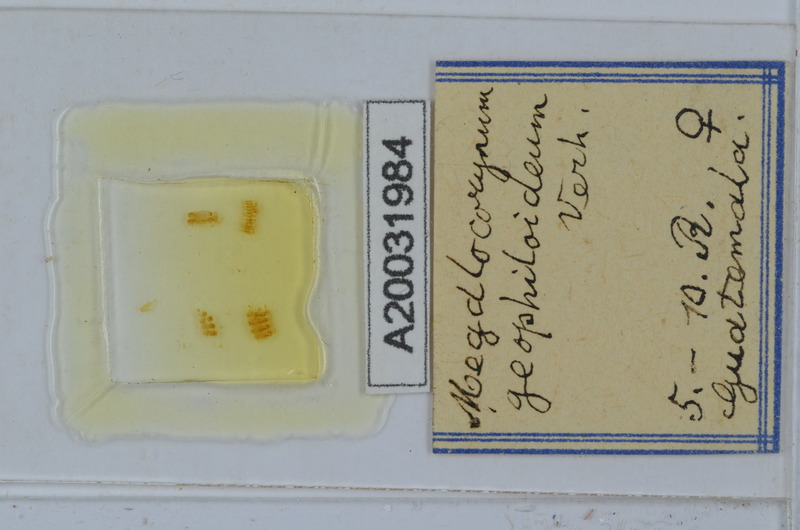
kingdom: Animalia
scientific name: Animalia
